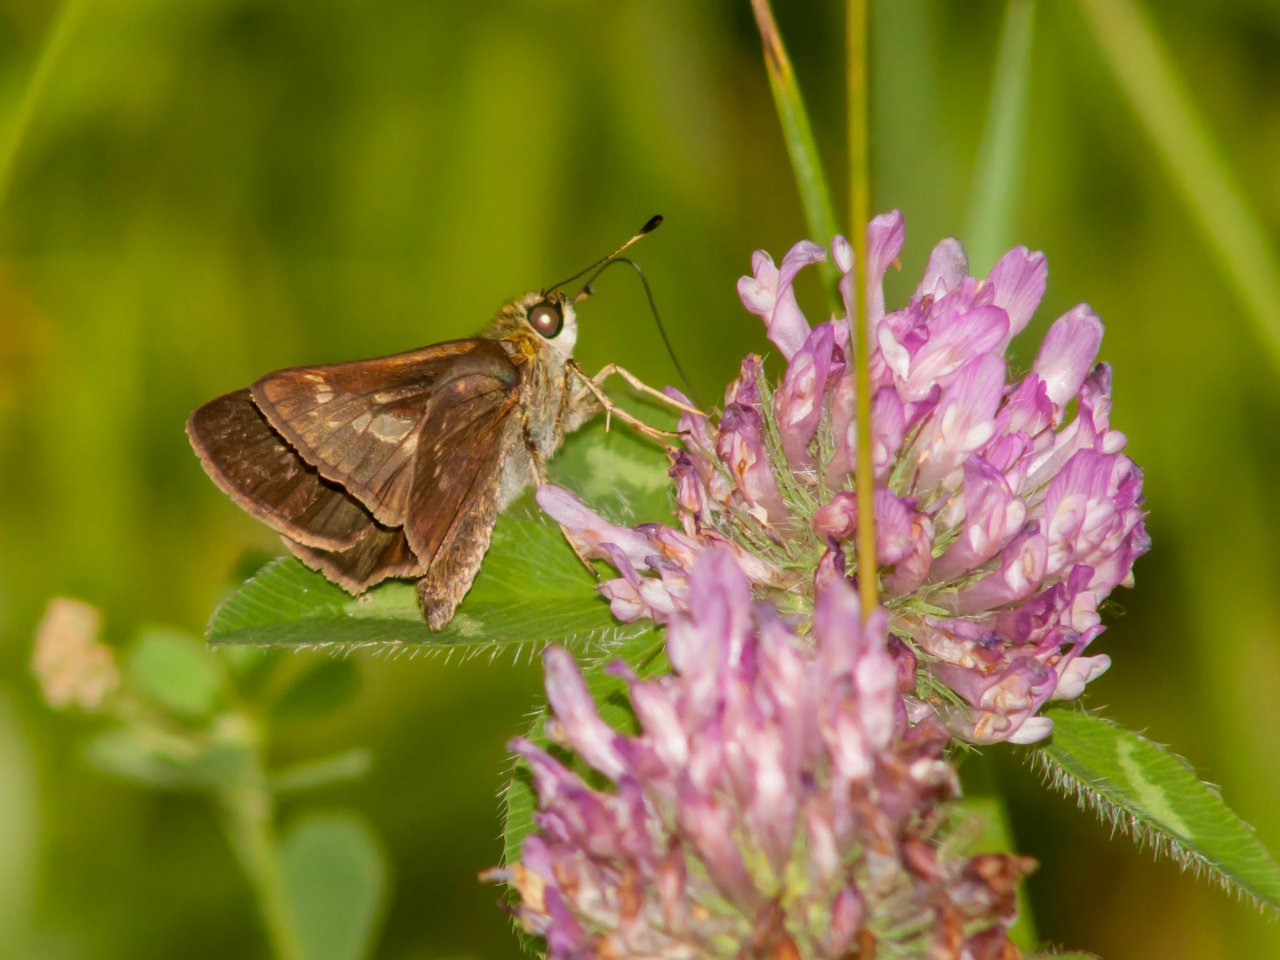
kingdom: Animalia
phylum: Arthropoda
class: Insecta
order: Lepidoptera
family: Hesperiidae
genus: Vernia
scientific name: Vernia verna
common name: Little Glassywing
